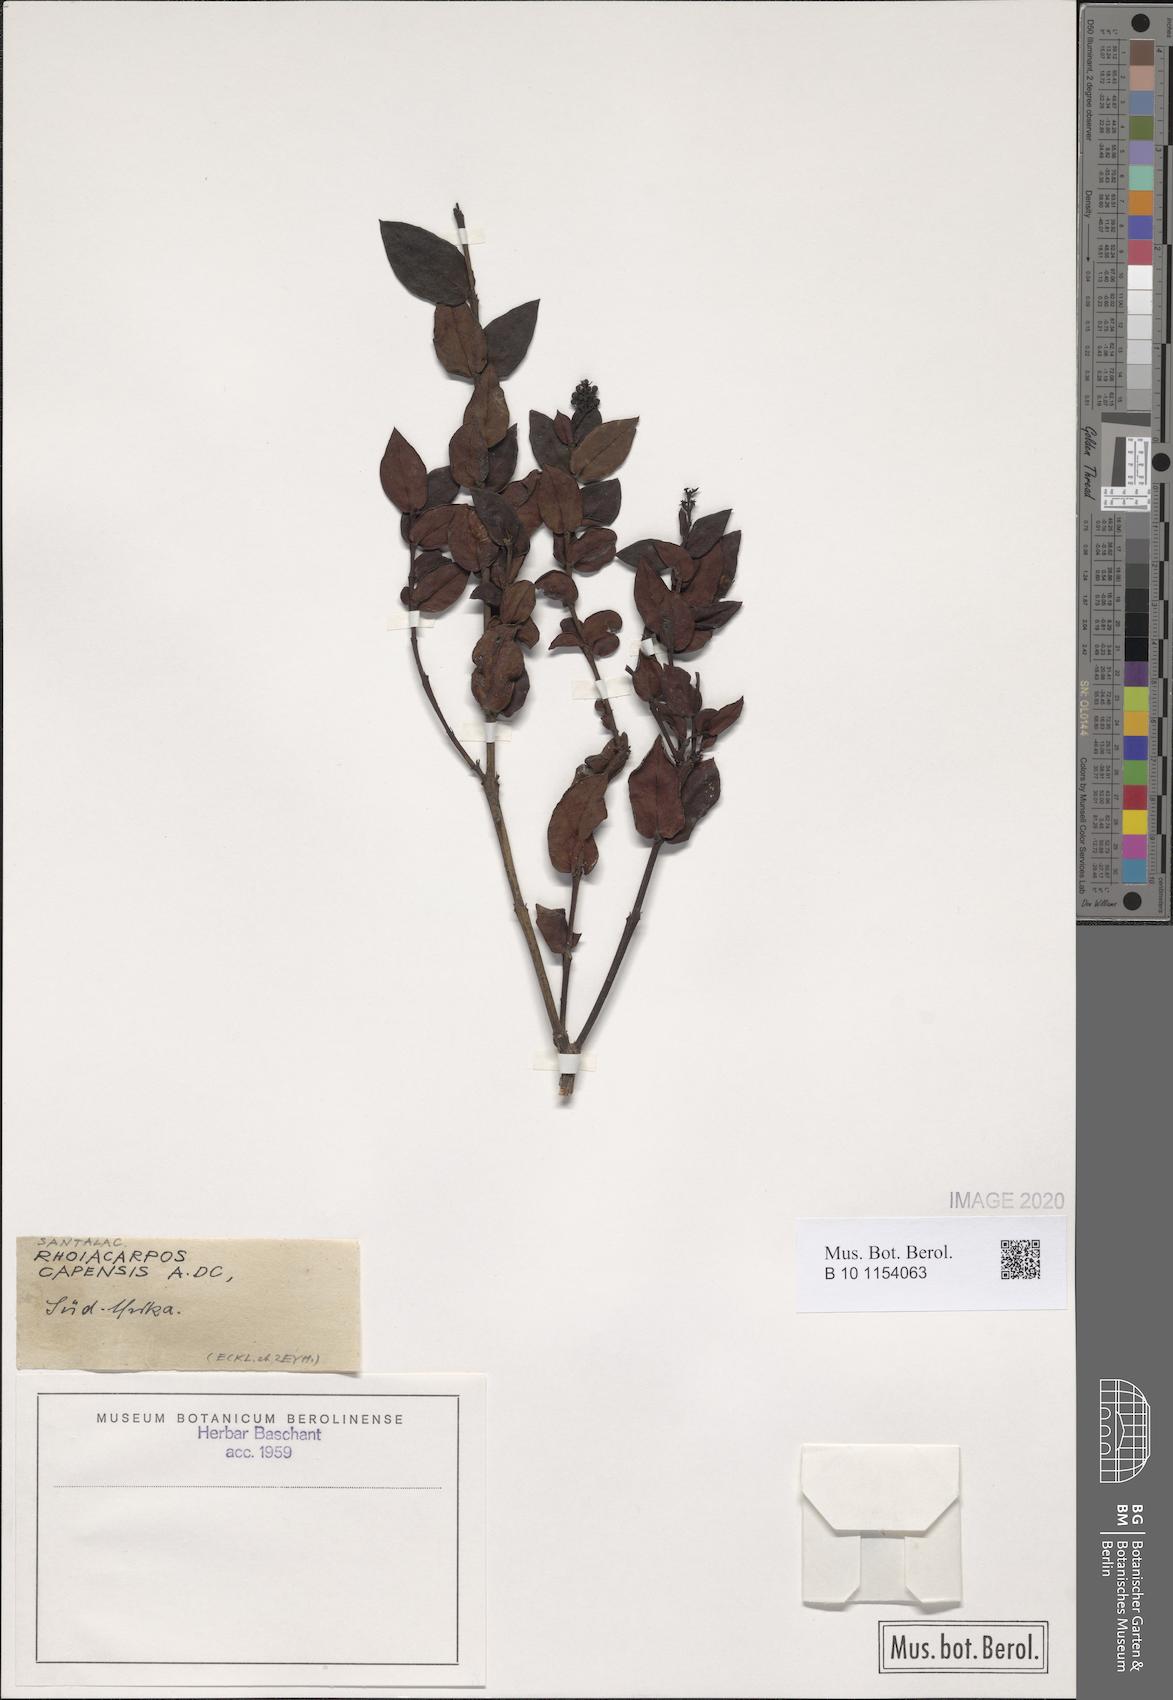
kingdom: Plantae
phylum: Tracheophyta
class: Magnoliopsida
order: Santalales
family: Santalaceae
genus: Rhoiacarpos
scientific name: Rhoiacarpos capensis
